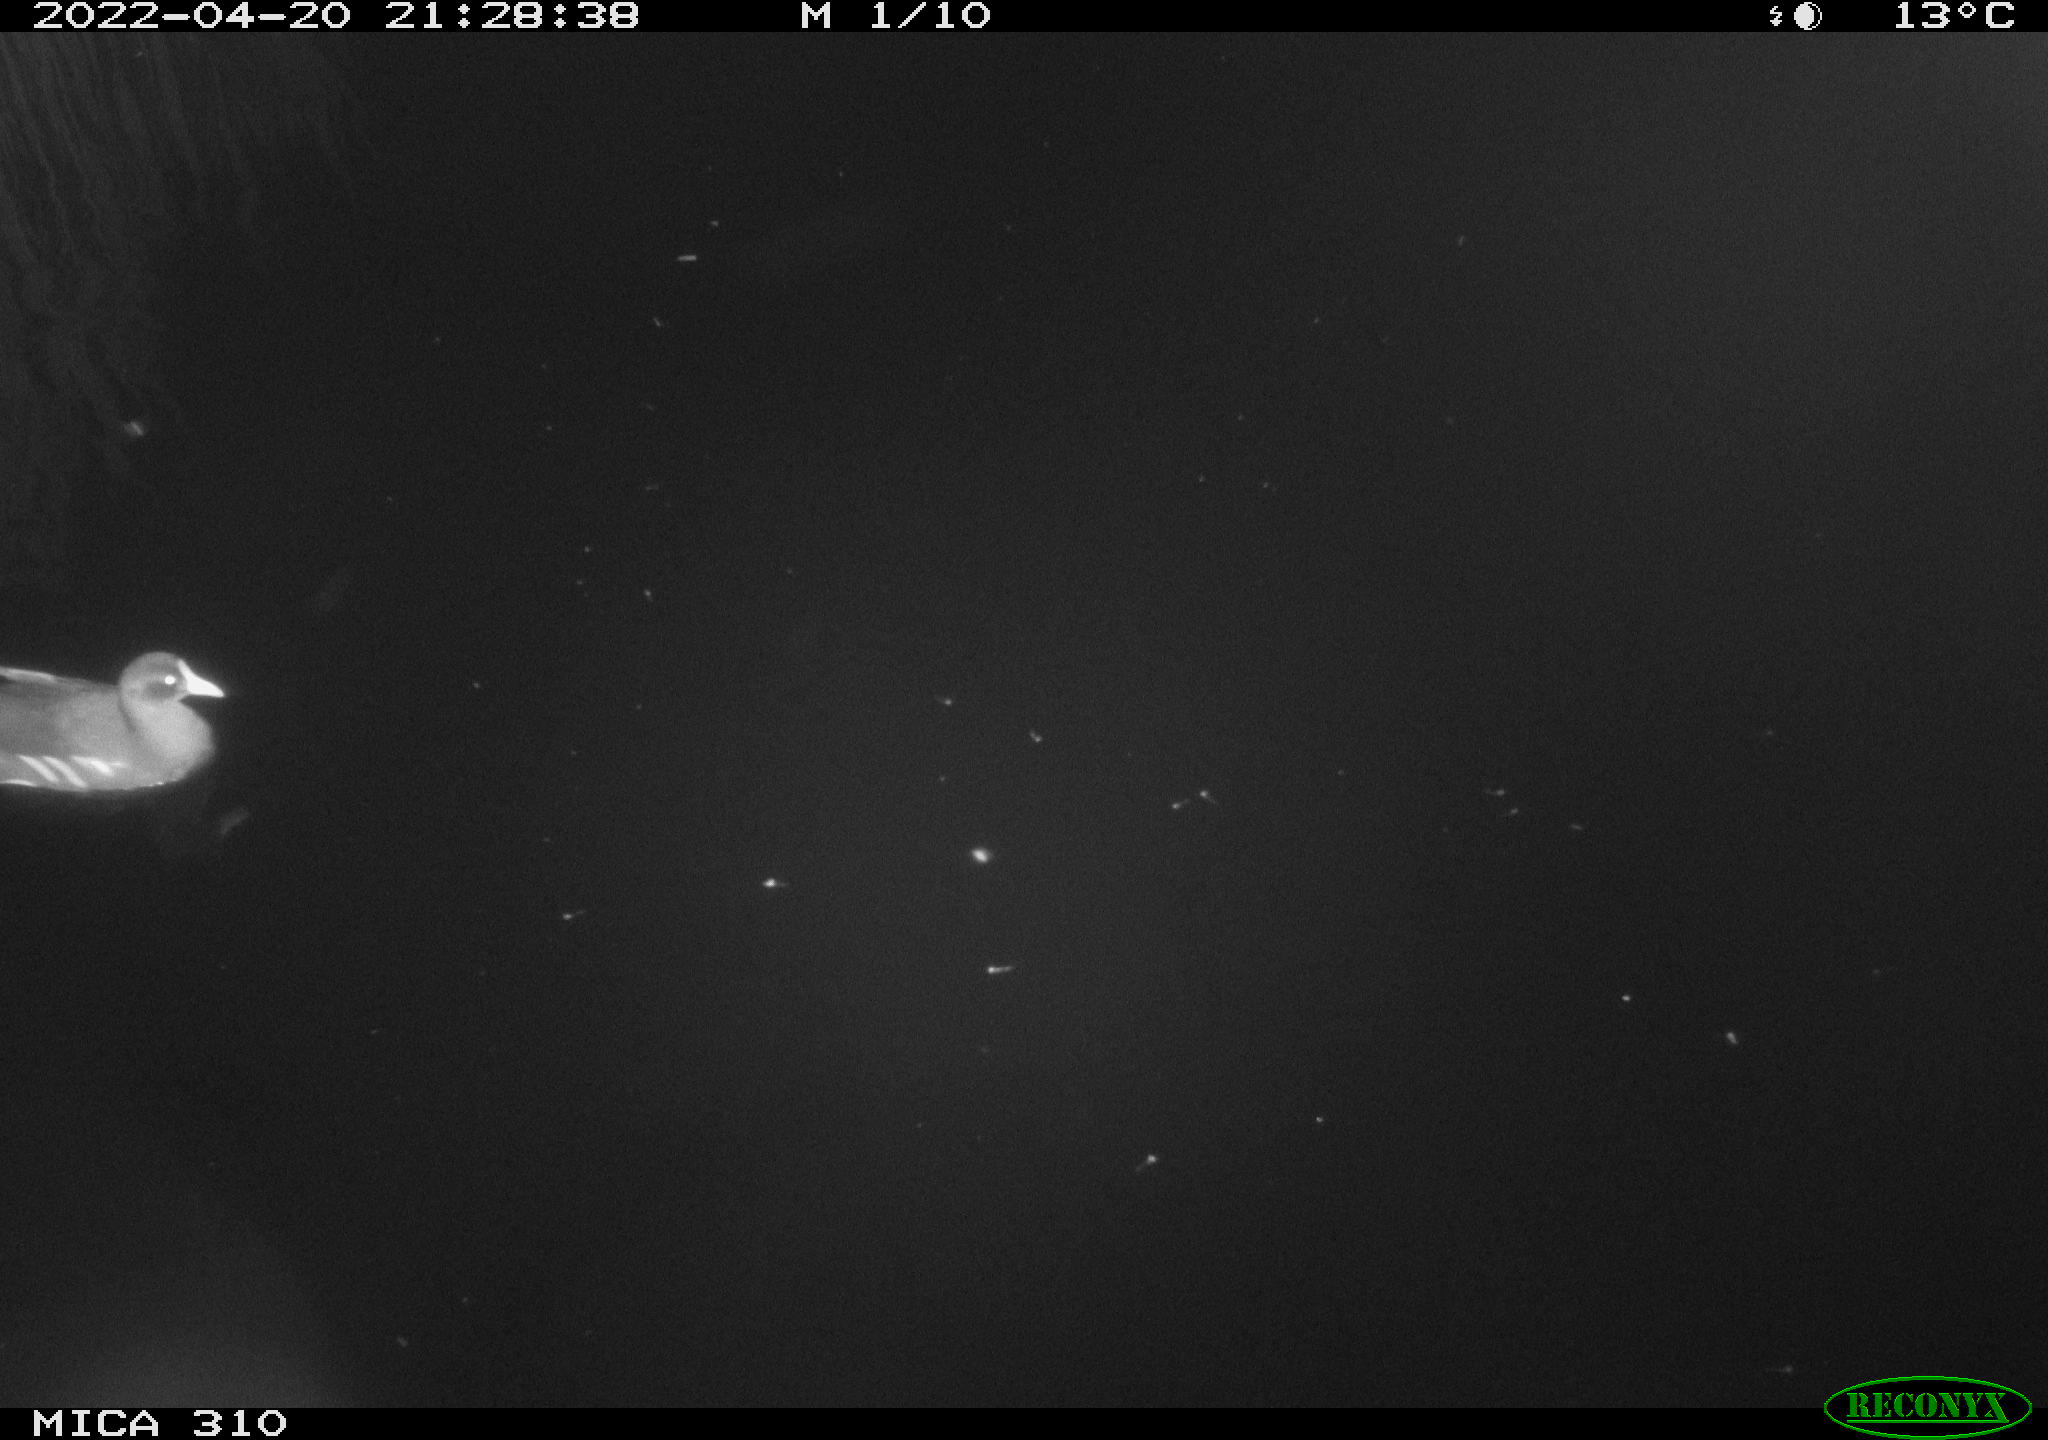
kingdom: Animalia
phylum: Chordata
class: Aves
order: Gruiformes
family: Rallidae
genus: Gallinula
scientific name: Gallinula chloropus
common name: Common moorhen
